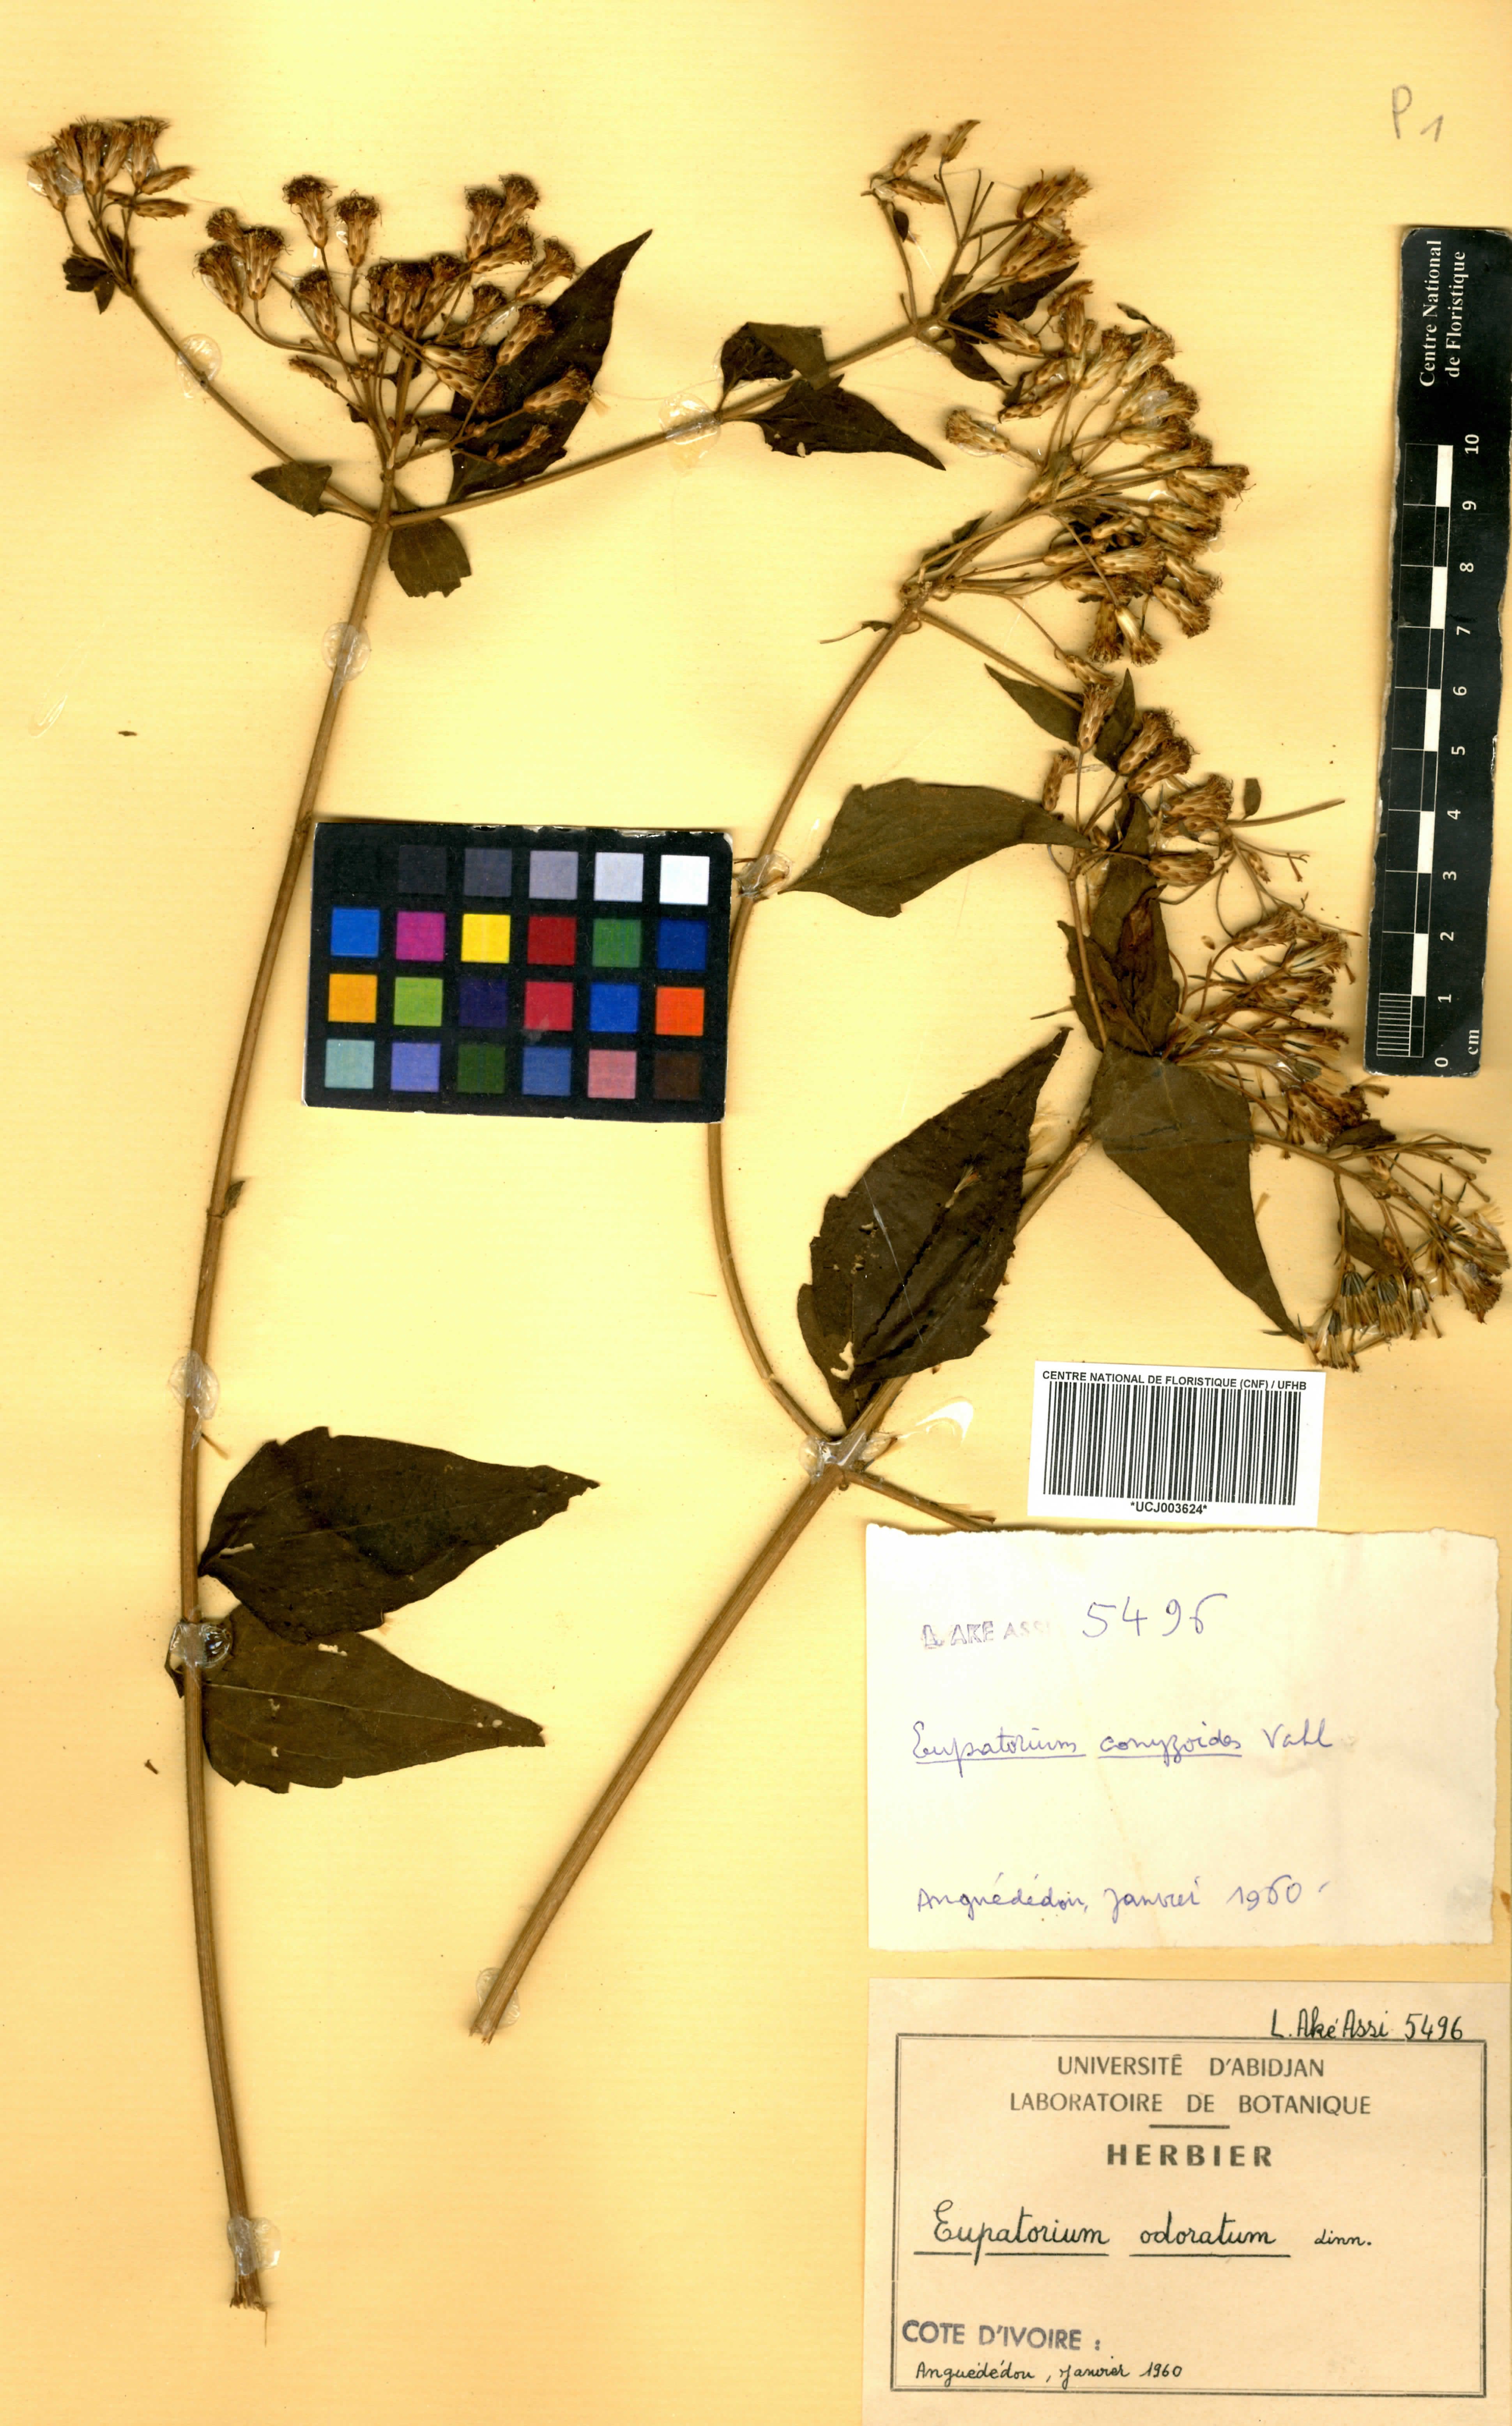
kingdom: Plantae
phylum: Tracheophyta
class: Magnoliopsida
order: Asterales
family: Asteraceae
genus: Chromolaena
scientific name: Chromolaena odorata
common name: Siamweed
